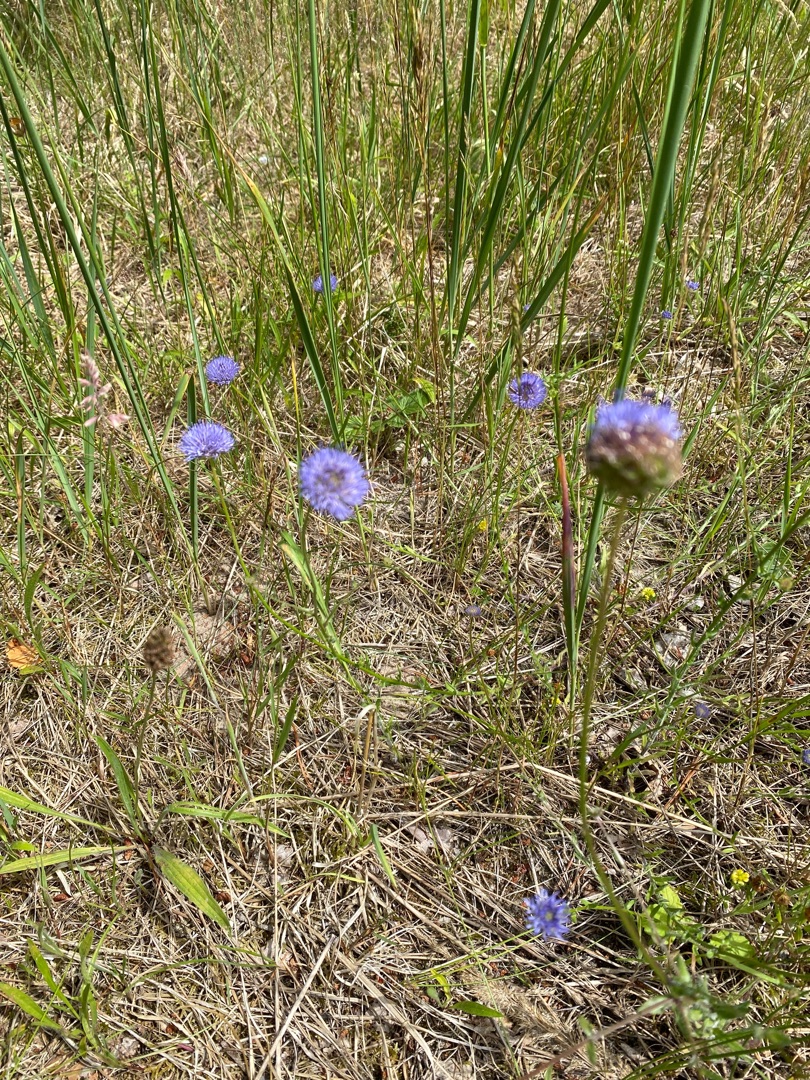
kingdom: Plantae
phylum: Tracheophyta
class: Magnoliopsida
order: Asterales
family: Campanulaceae
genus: Jasione
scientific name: Jasione montana
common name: Blåmunke
